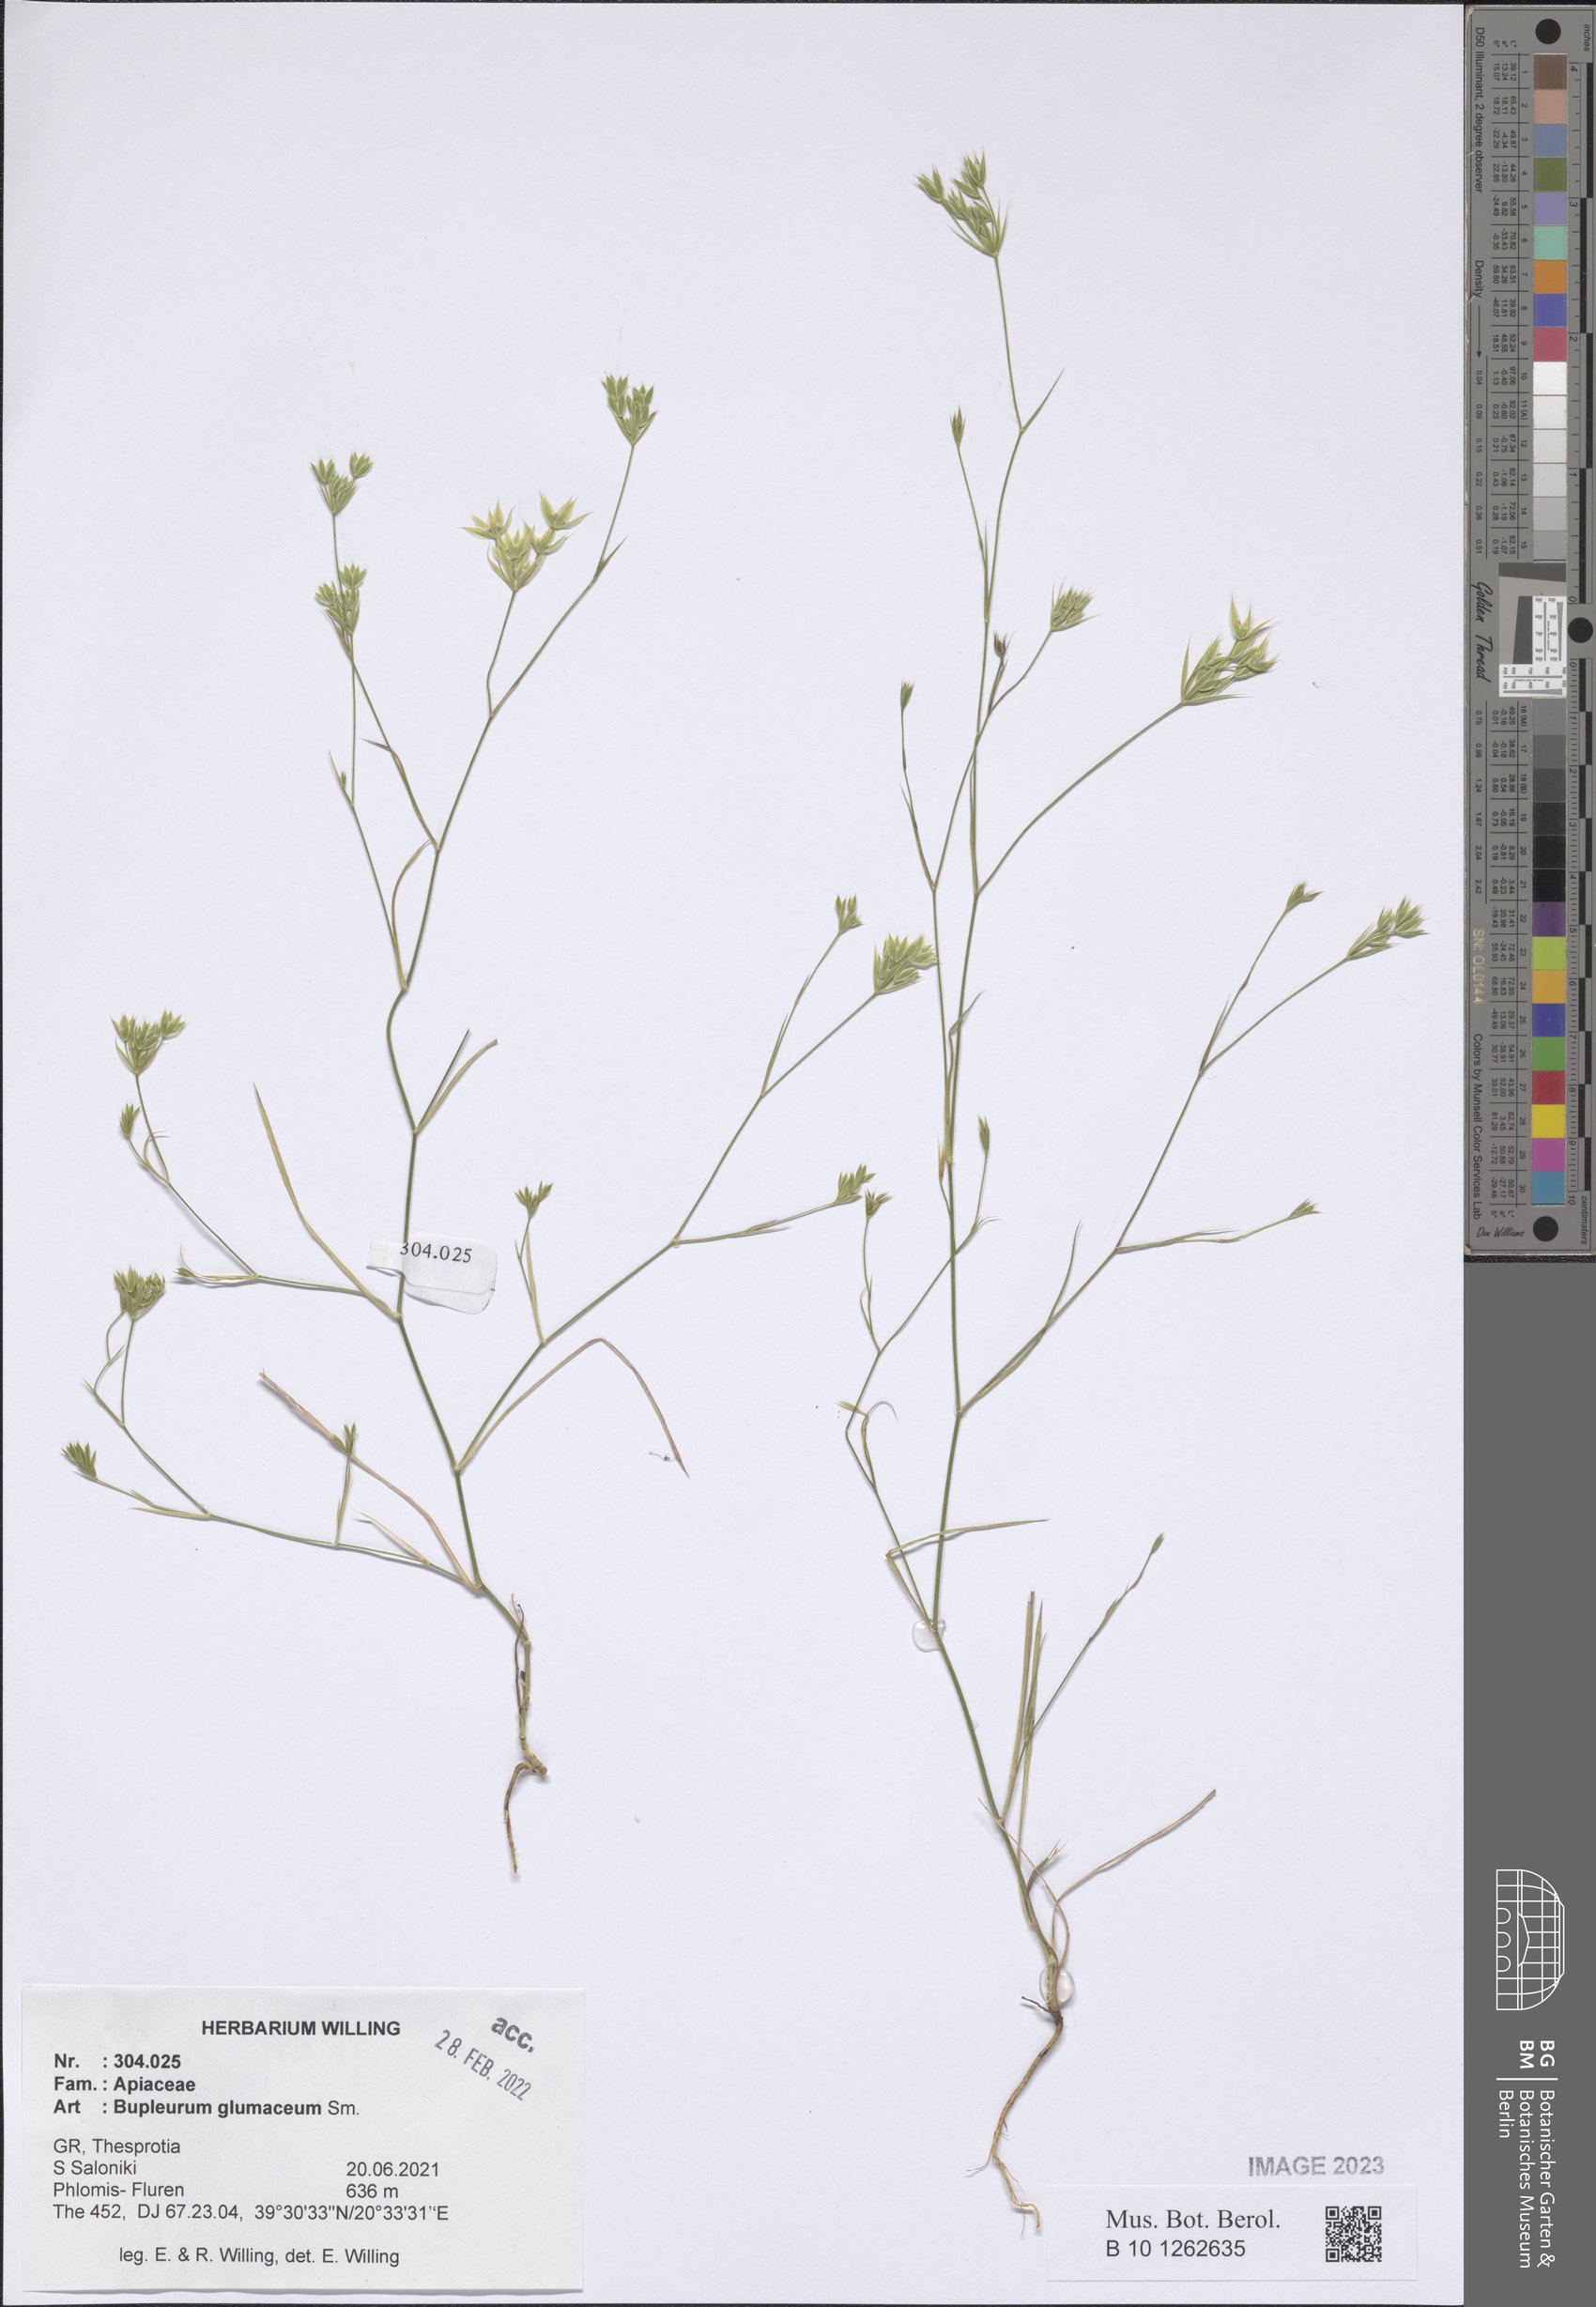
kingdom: Plantae
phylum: Tracheophyta
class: Magnoliopsida
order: Apiales
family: Apiaceae
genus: Bupleurum
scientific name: Bupleurum glumaceum
